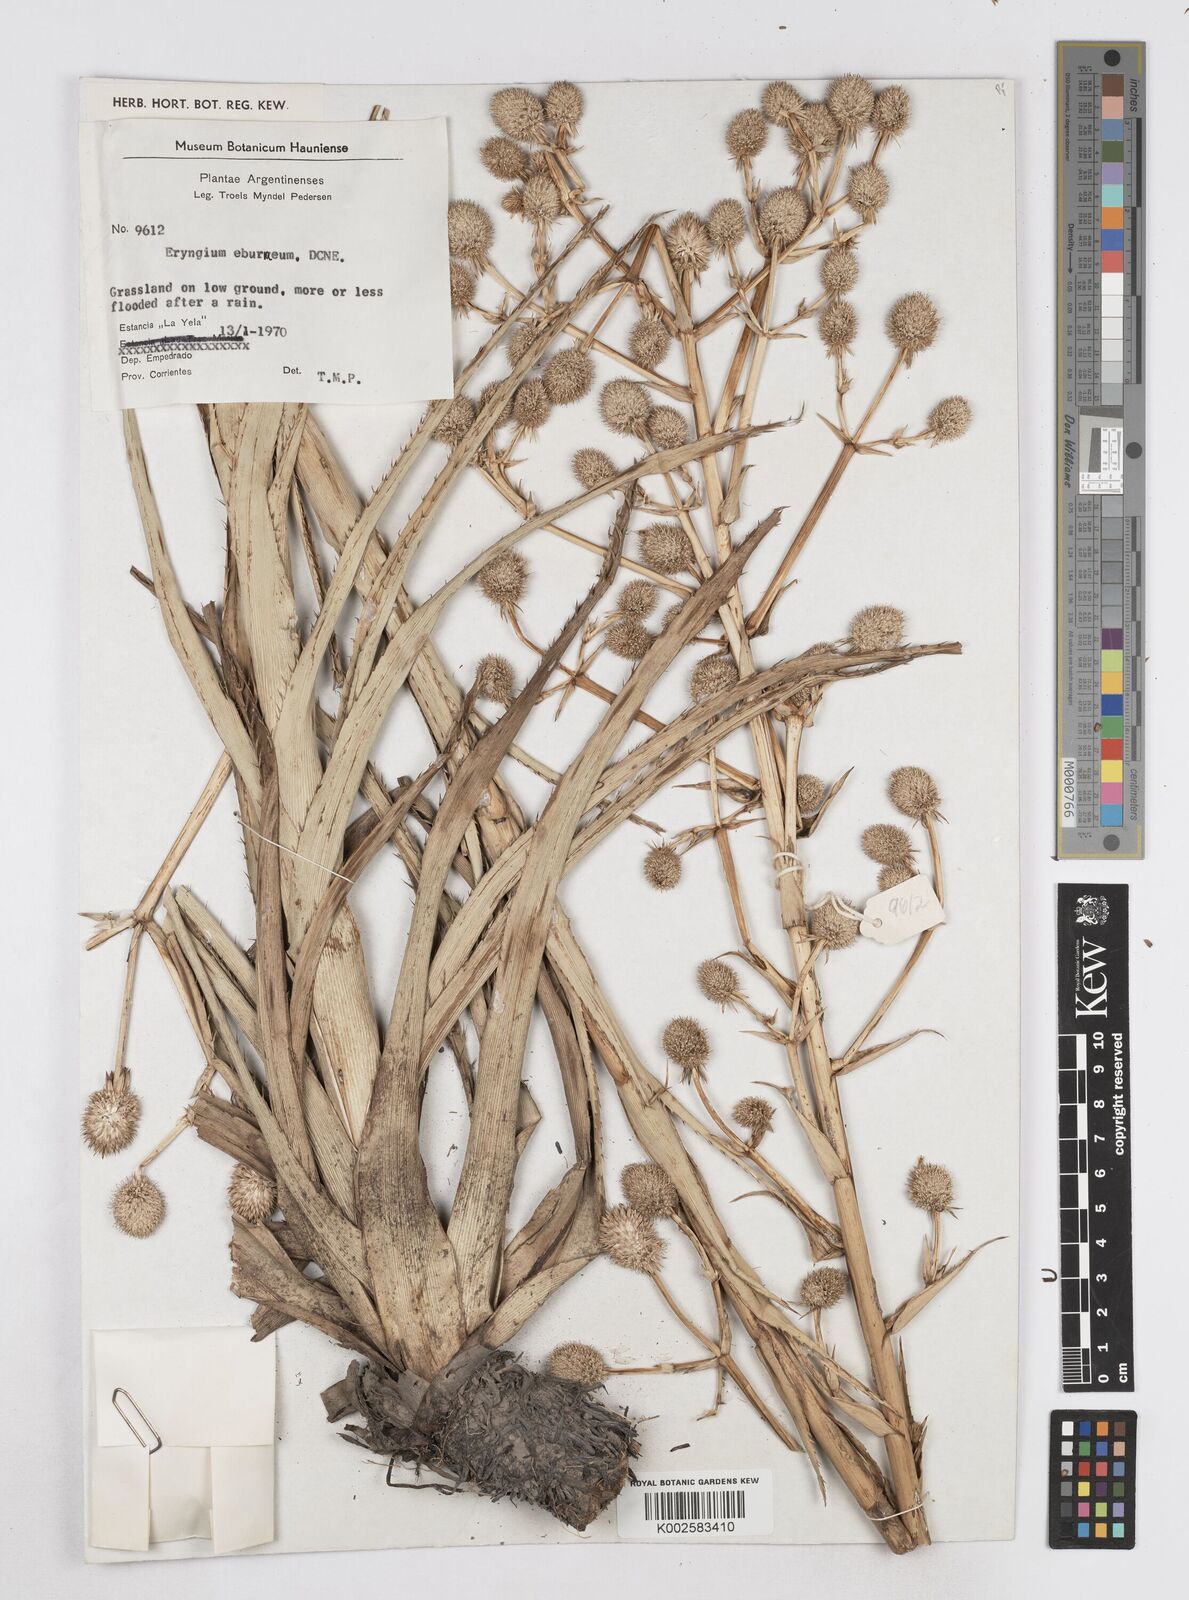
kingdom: Plantae
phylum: Tracheophyta
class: Magnoliopsida
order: Apiales
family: Apiaceae
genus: Eryngium
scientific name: Eryngium eburneum
